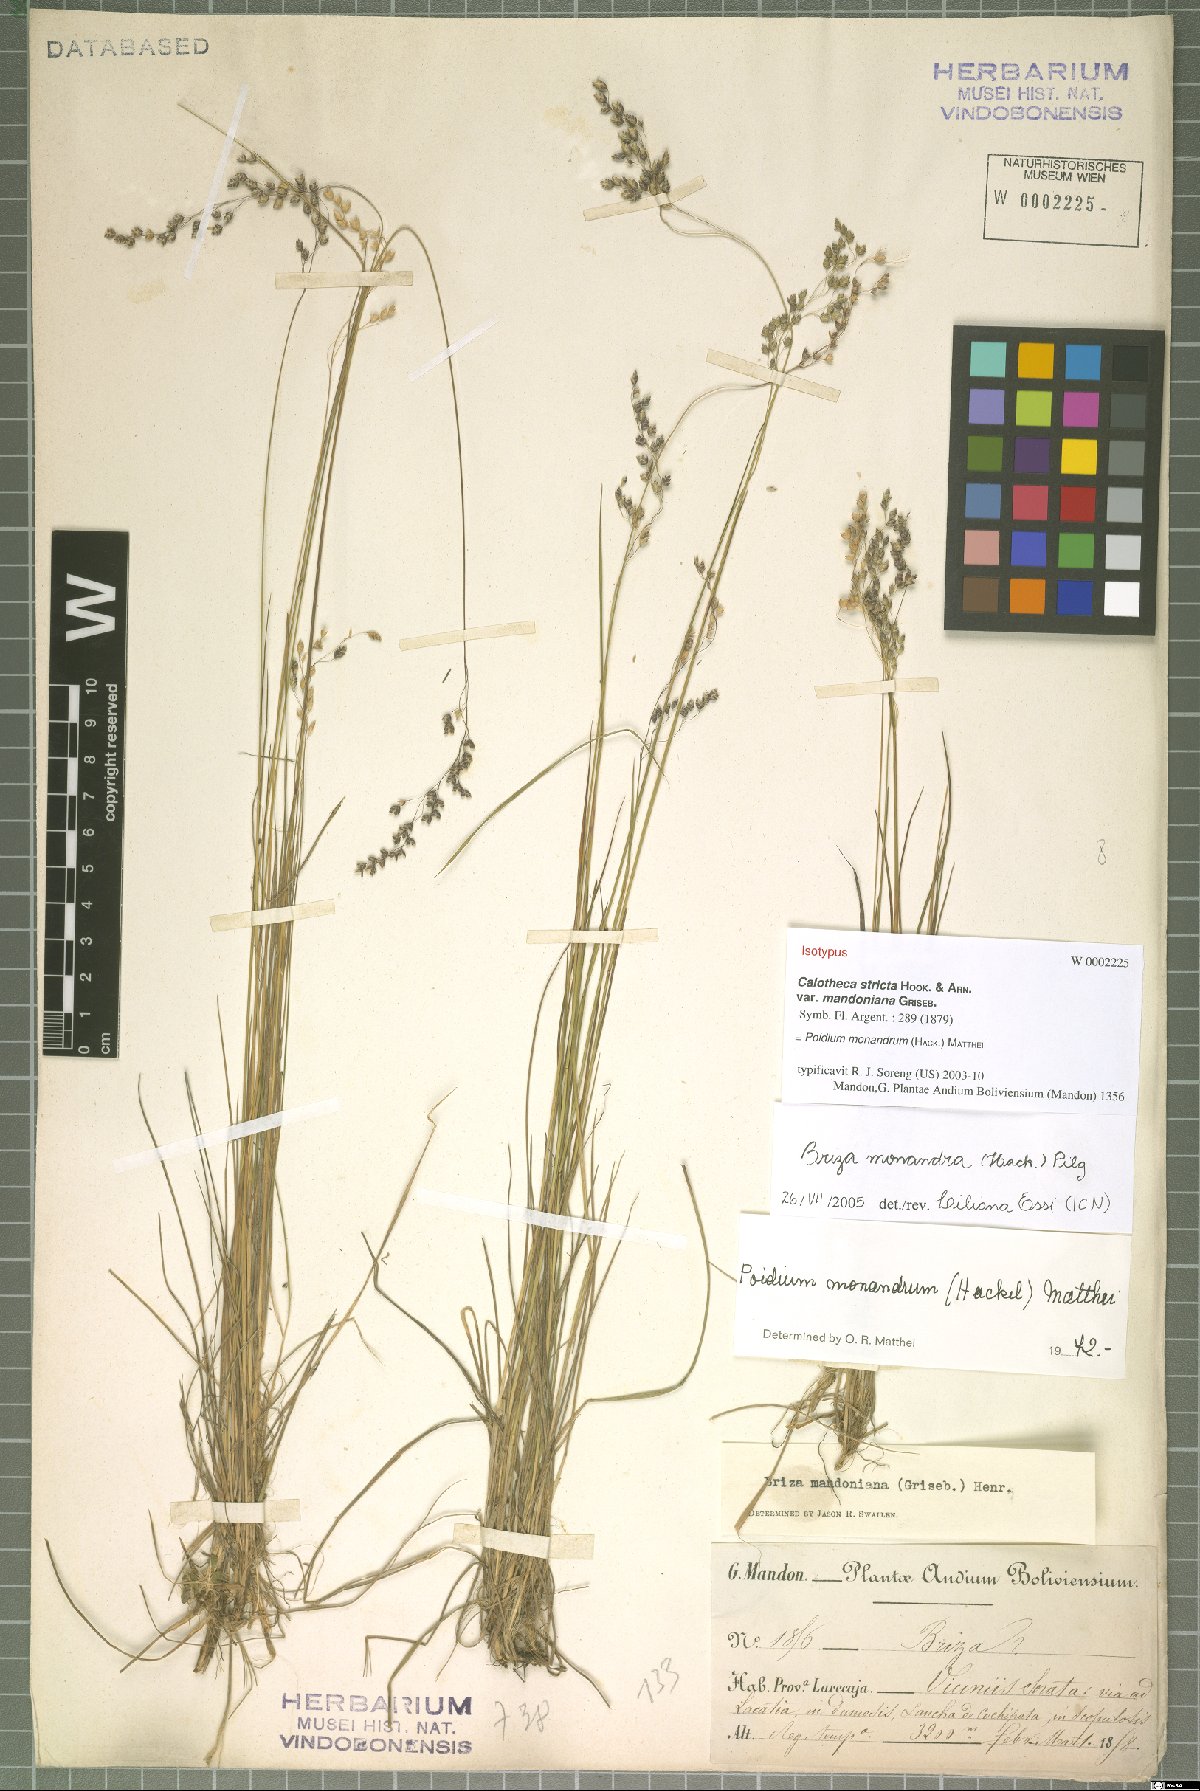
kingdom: Plantae
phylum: Tracheophyta
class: Liliopsida
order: Poales
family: Poaceae
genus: Poidium
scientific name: Poidium monandrum
